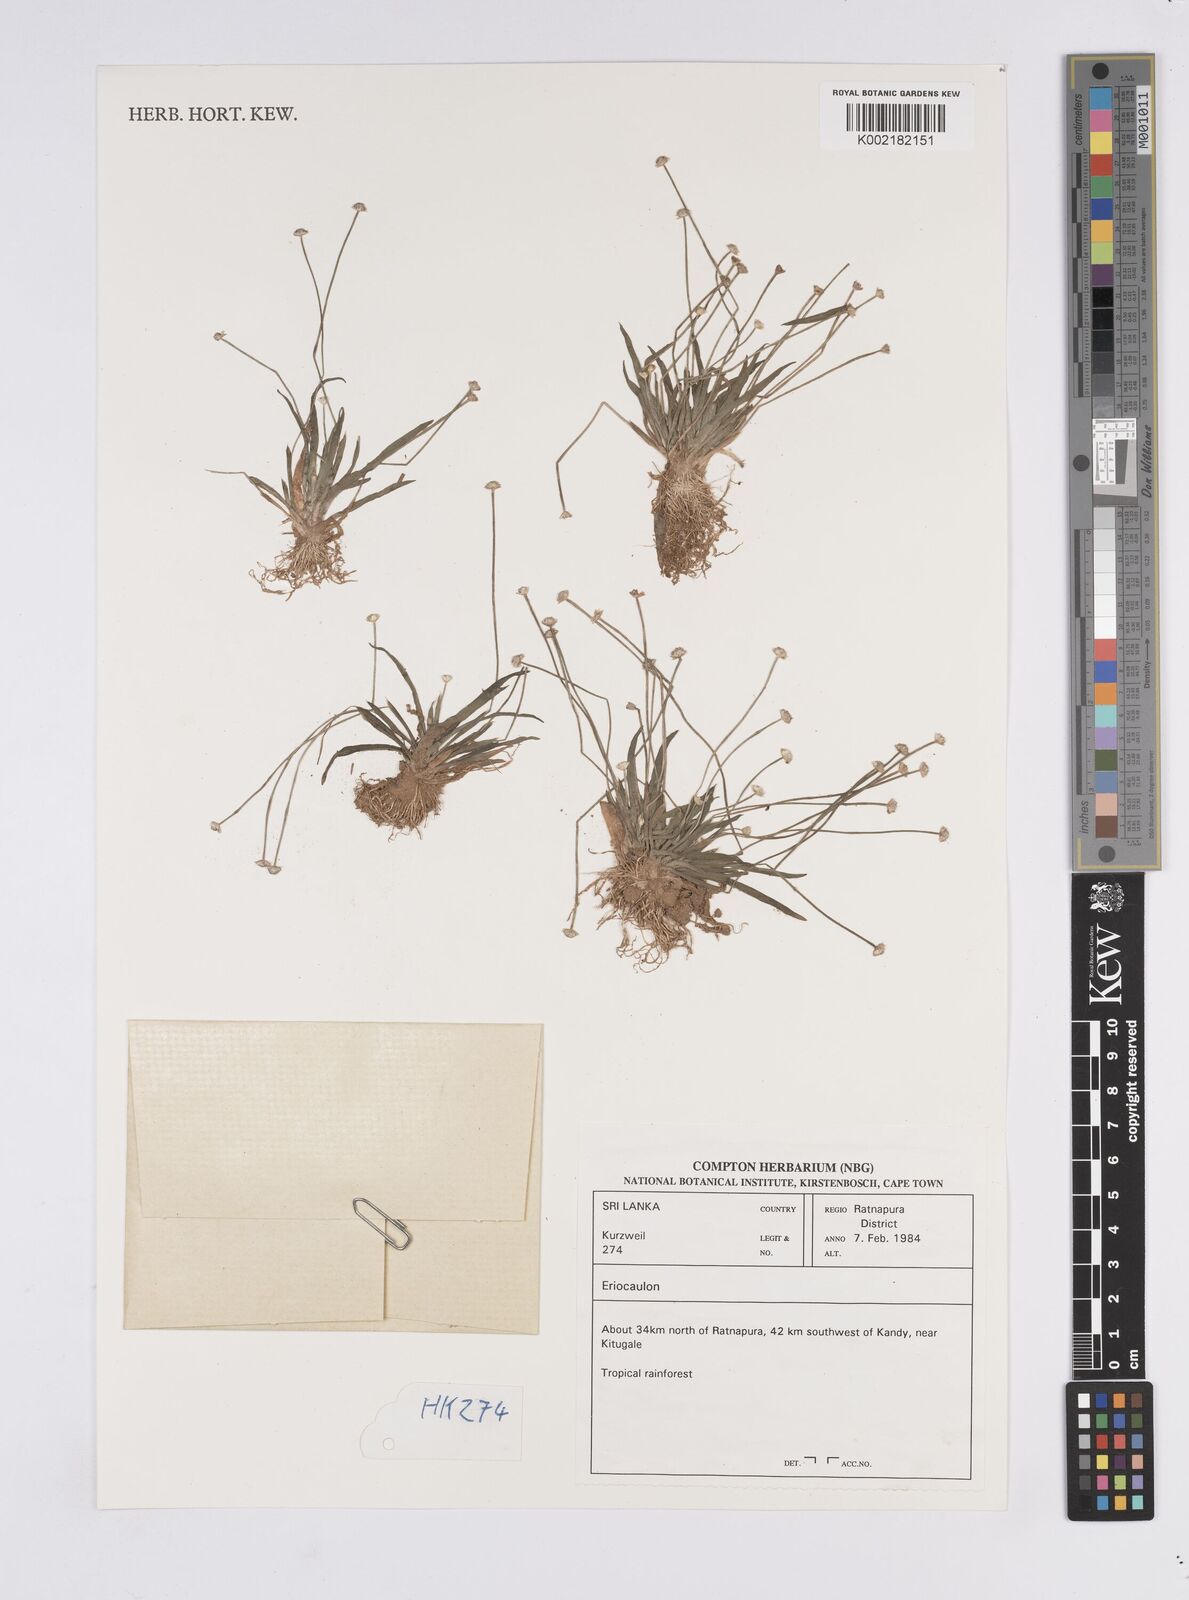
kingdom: Plantae
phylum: Tracheophyta
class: Liliopsida
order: Poales
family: Eriocaulaceae
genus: Eriocaulon
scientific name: Eriocaulon
